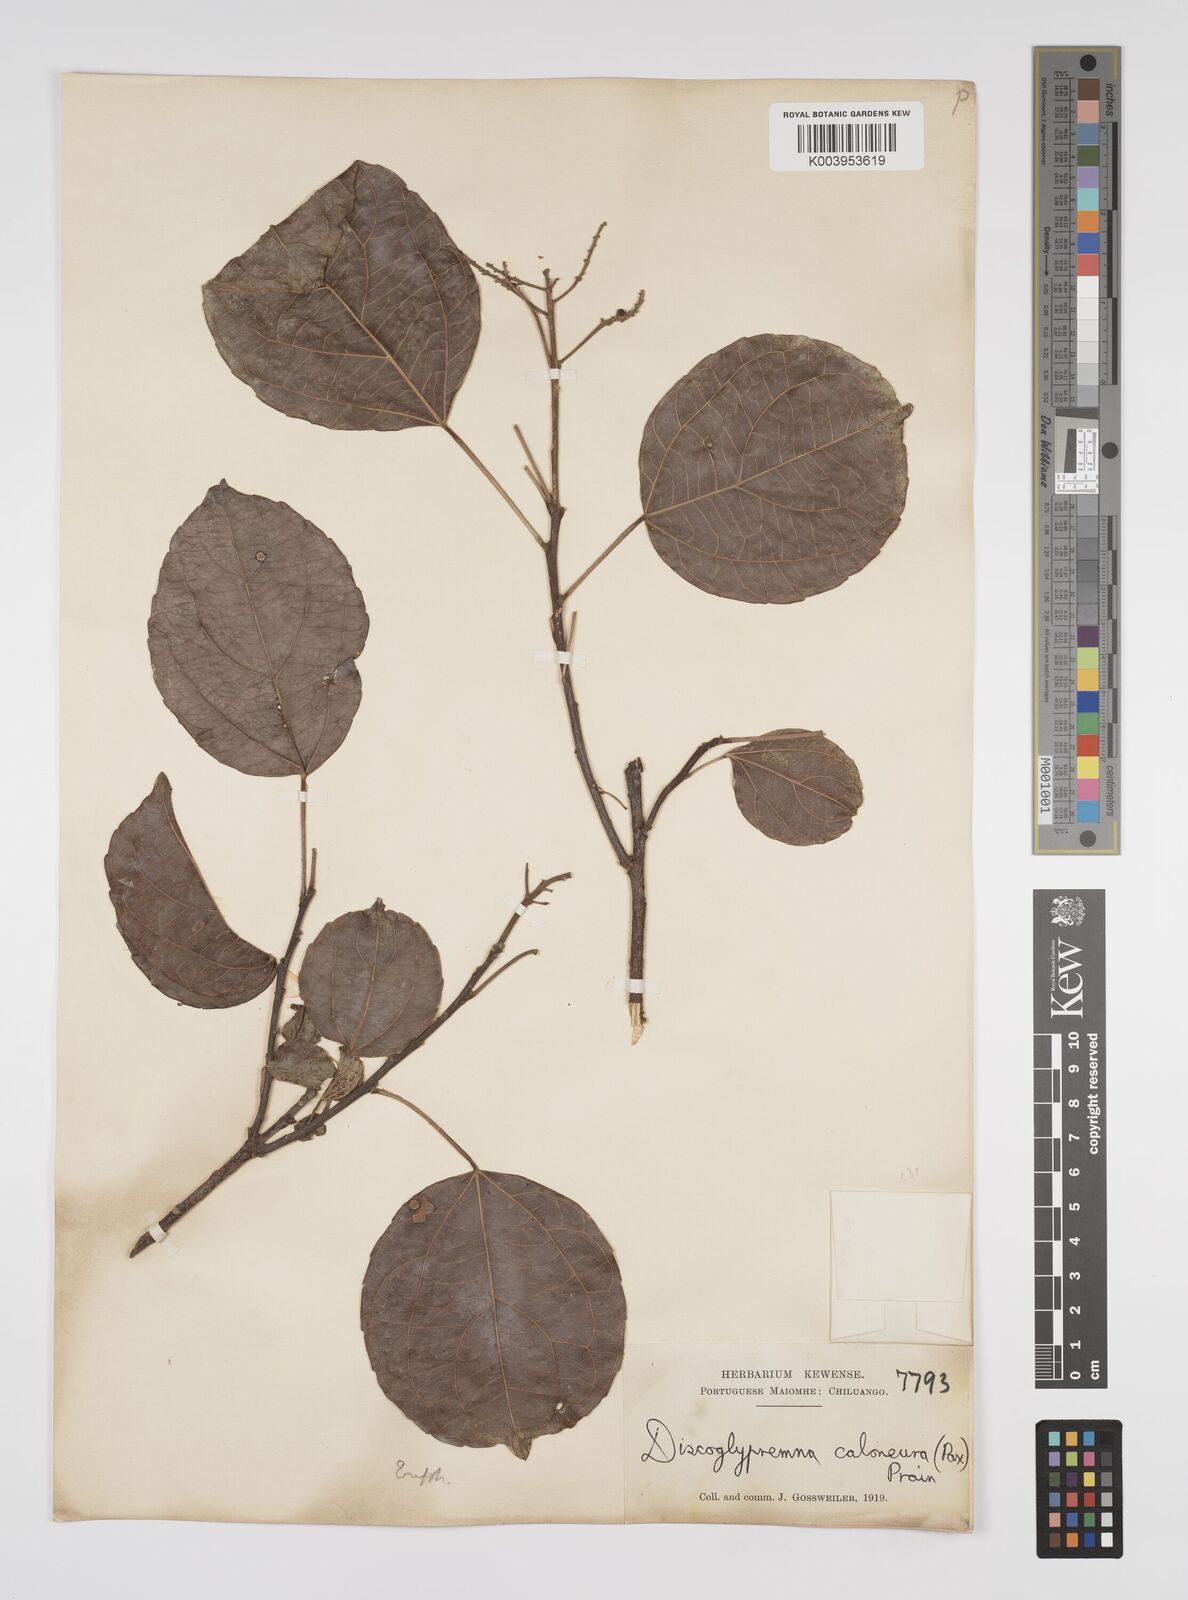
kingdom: Plantae
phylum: Tracheophyta
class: Magnoliopsida
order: Malpighiales
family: Euphorbiaceae
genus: Discoglypremna
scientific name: Discoglypremna caloneura
